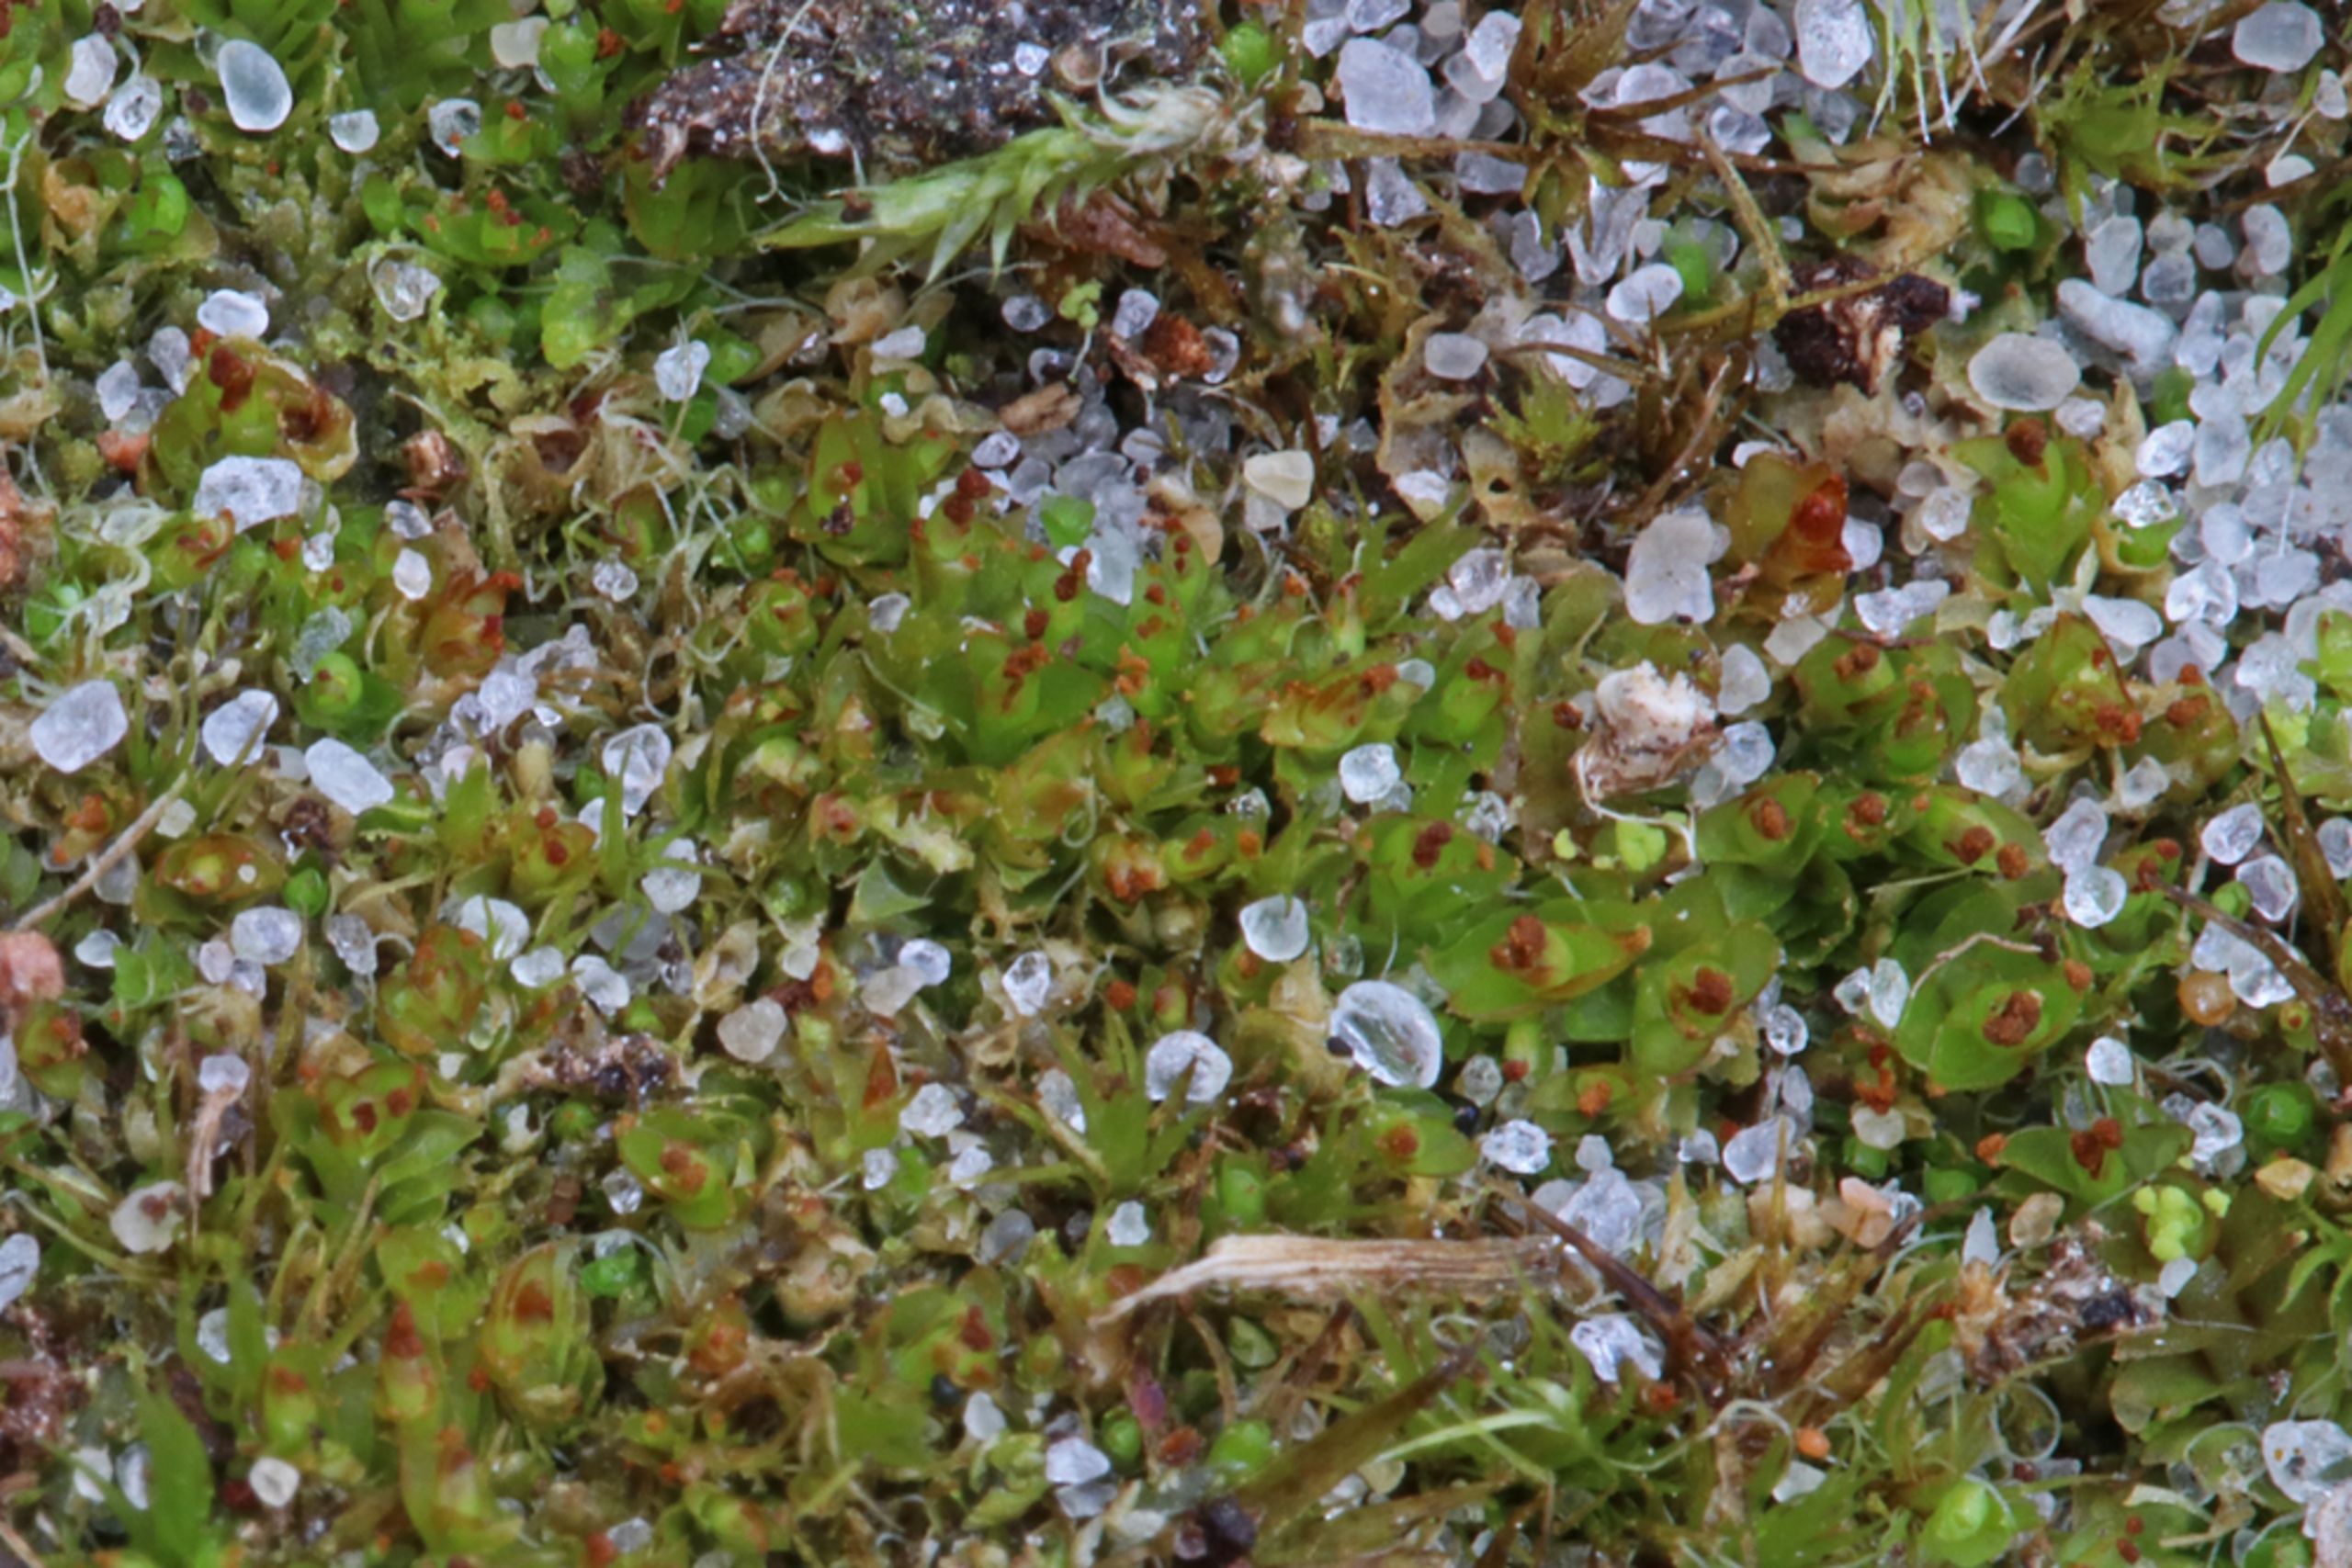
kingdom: Plantae
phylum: Marchantiophyta
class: Jungermanniopsida
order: Jungermanniales
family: Lophoziaceae
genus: Tritomaria
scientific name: Tritomaria exsectiformis
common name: Skævbladet tretand
